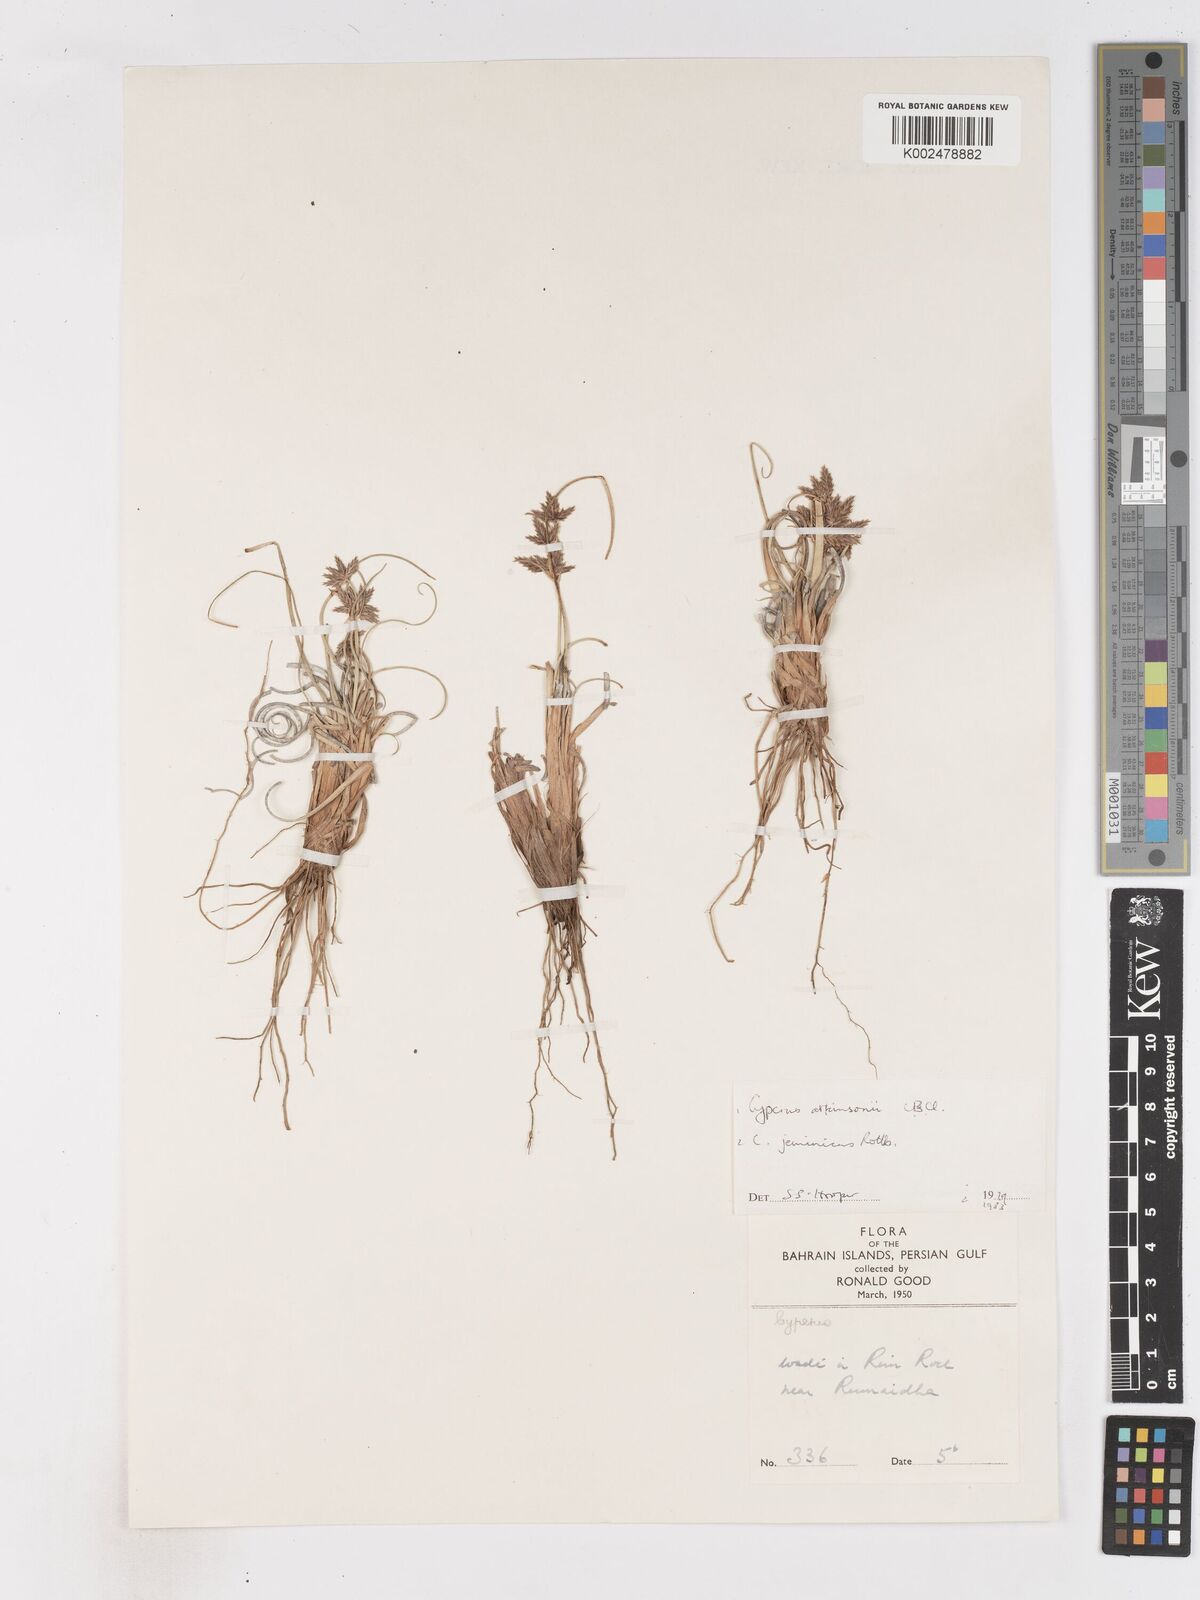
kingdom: Plantae
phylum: Tracheophyta
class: Liliopsida
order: Poales
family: Cyperaceae
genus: Cyperus
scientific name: Cyperus jeminicus
